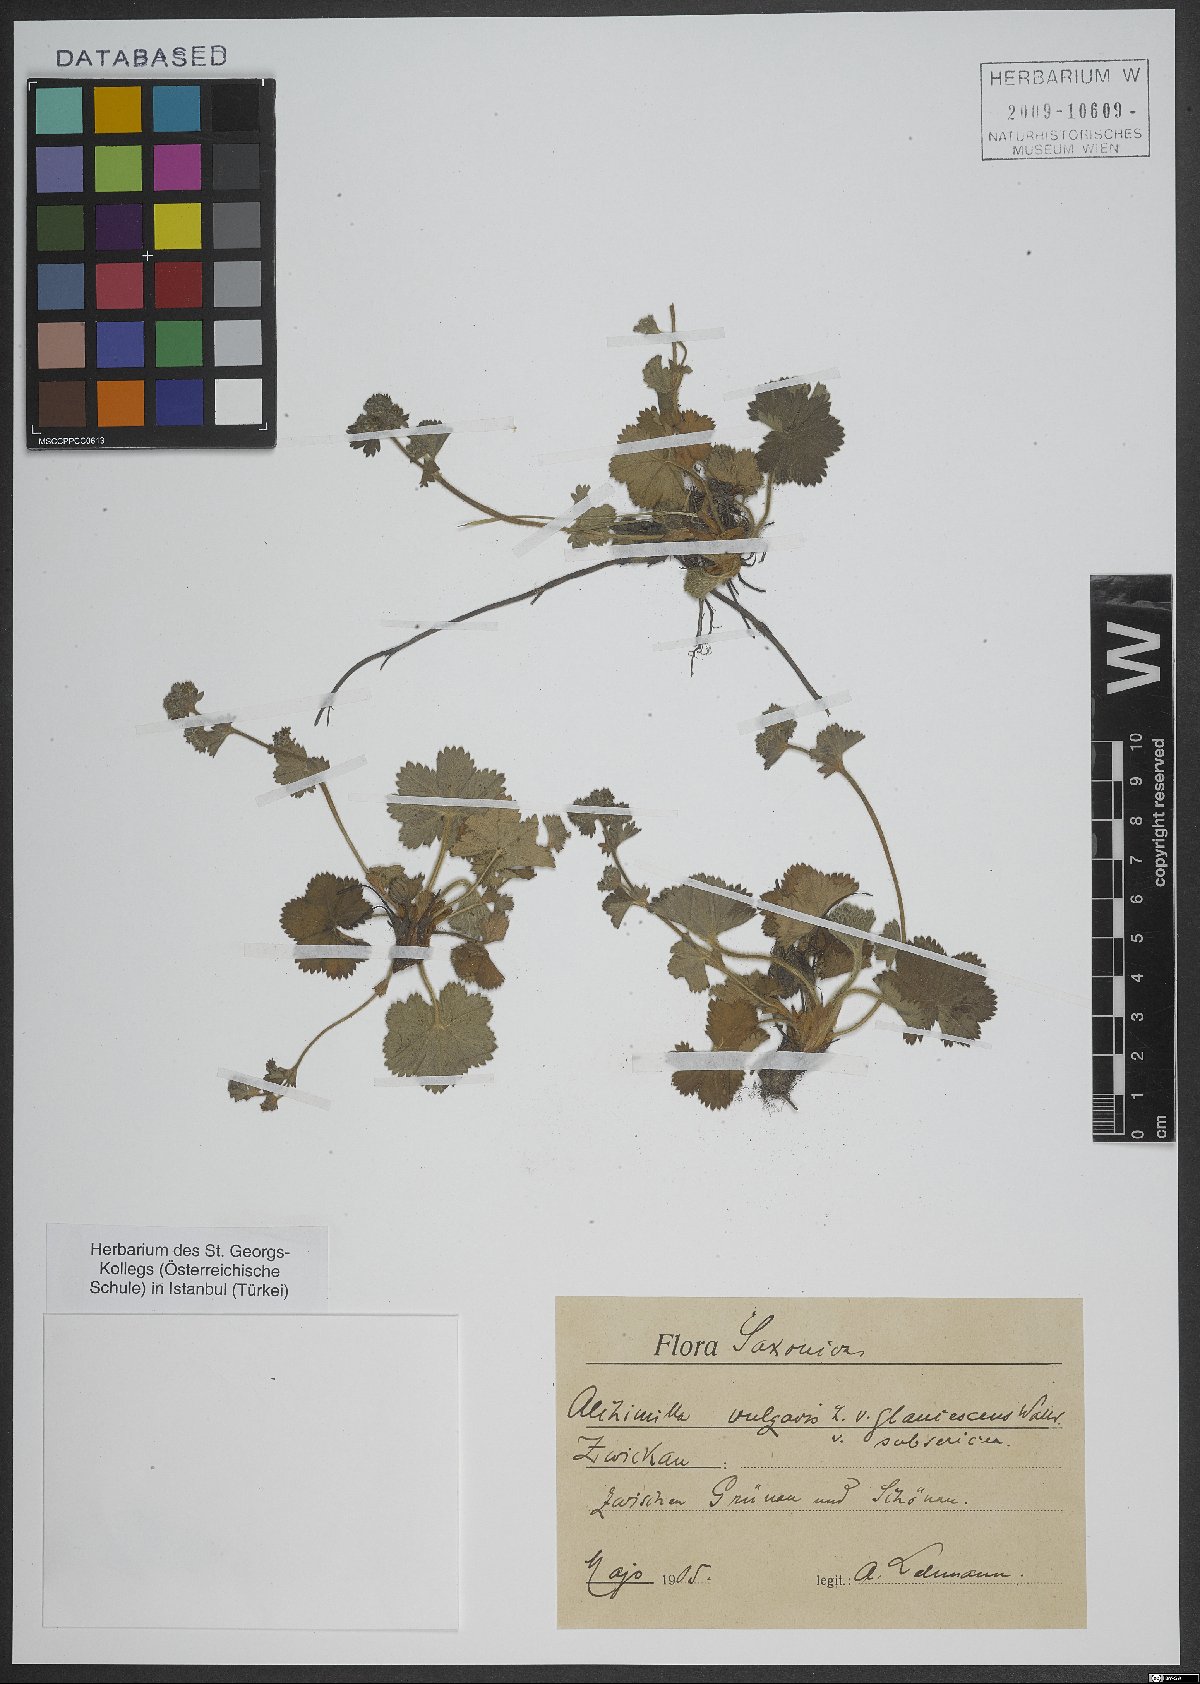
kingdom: Plantae
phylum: Tracheophyta
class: Magnoliopsida
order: Rosales
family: Rosaceae
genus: Alchemilla
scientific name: Alchemilla vulgaris
